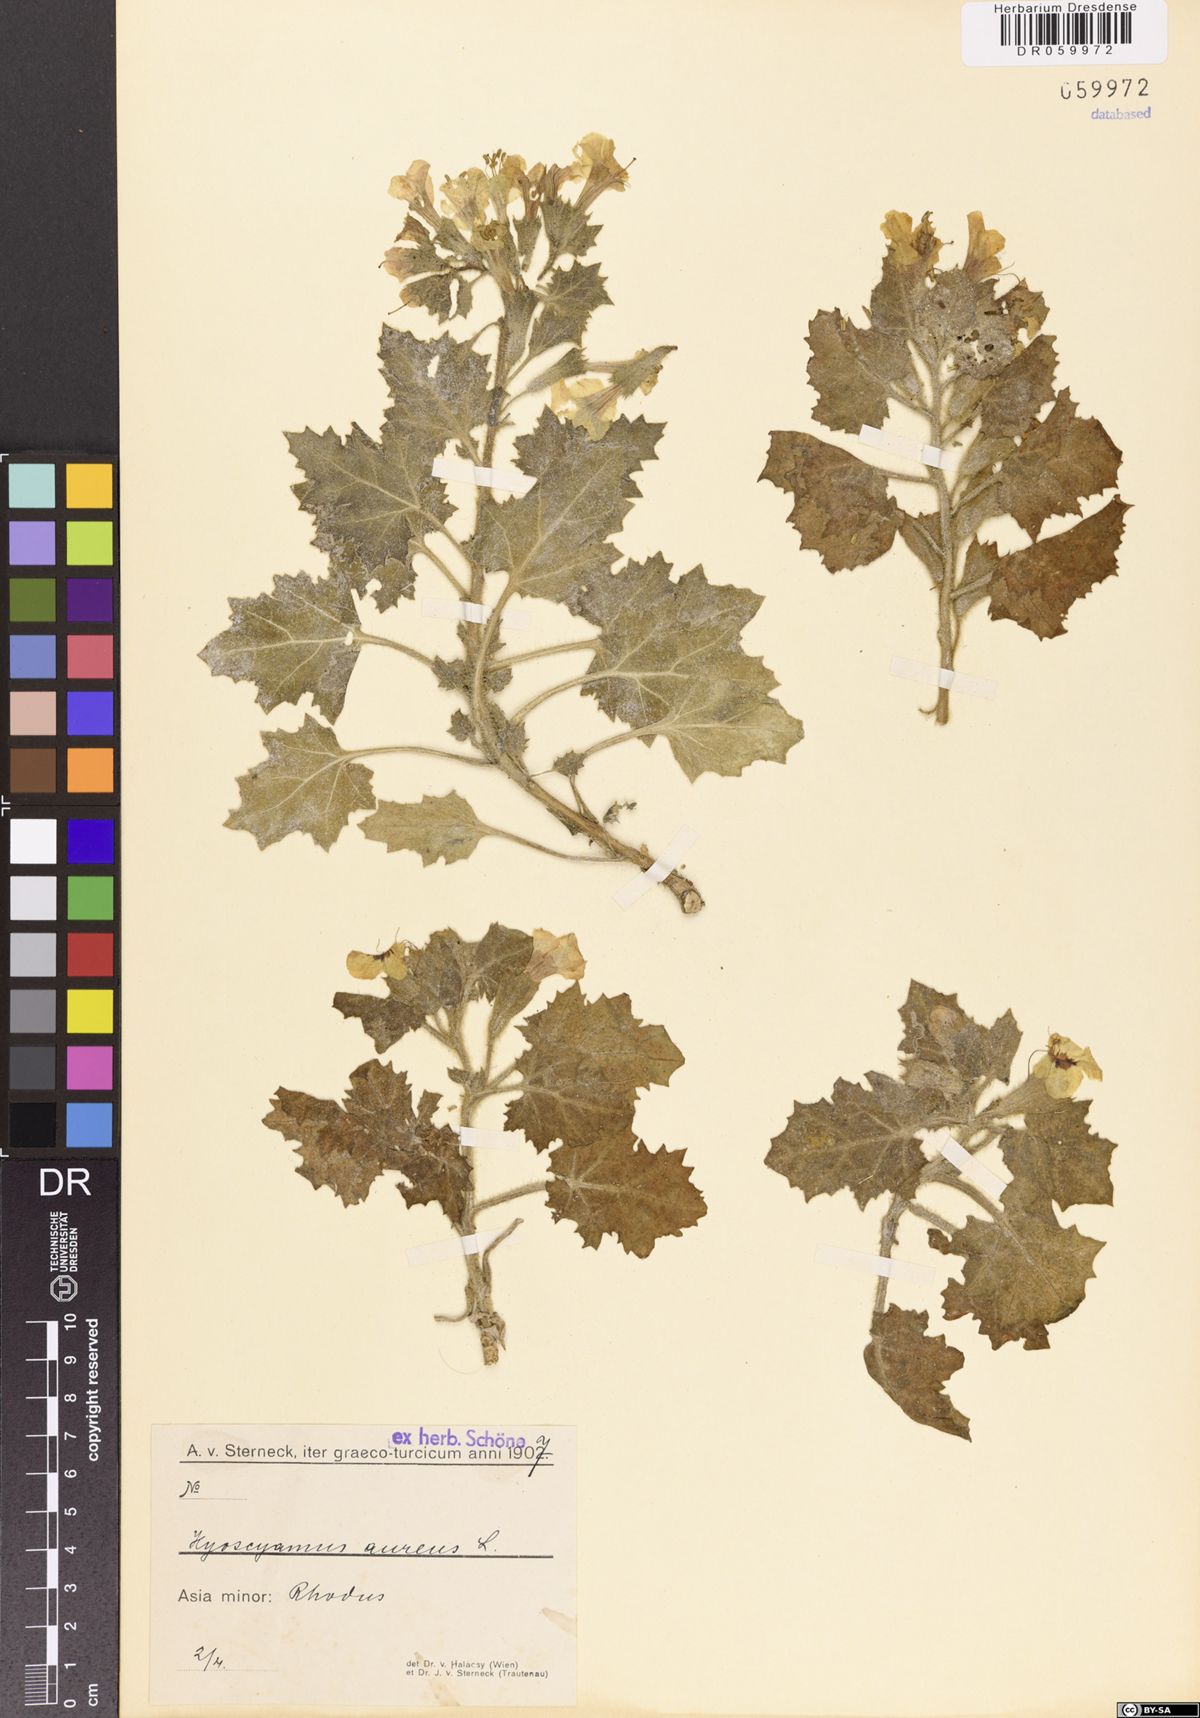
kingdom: Plantae
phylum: Tracheophyta
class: Magnoliopsida
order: Solanales
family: Solanaceae
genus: Hyoscyamus
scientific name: Hyoscyamus aureus
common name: Golden henbane
